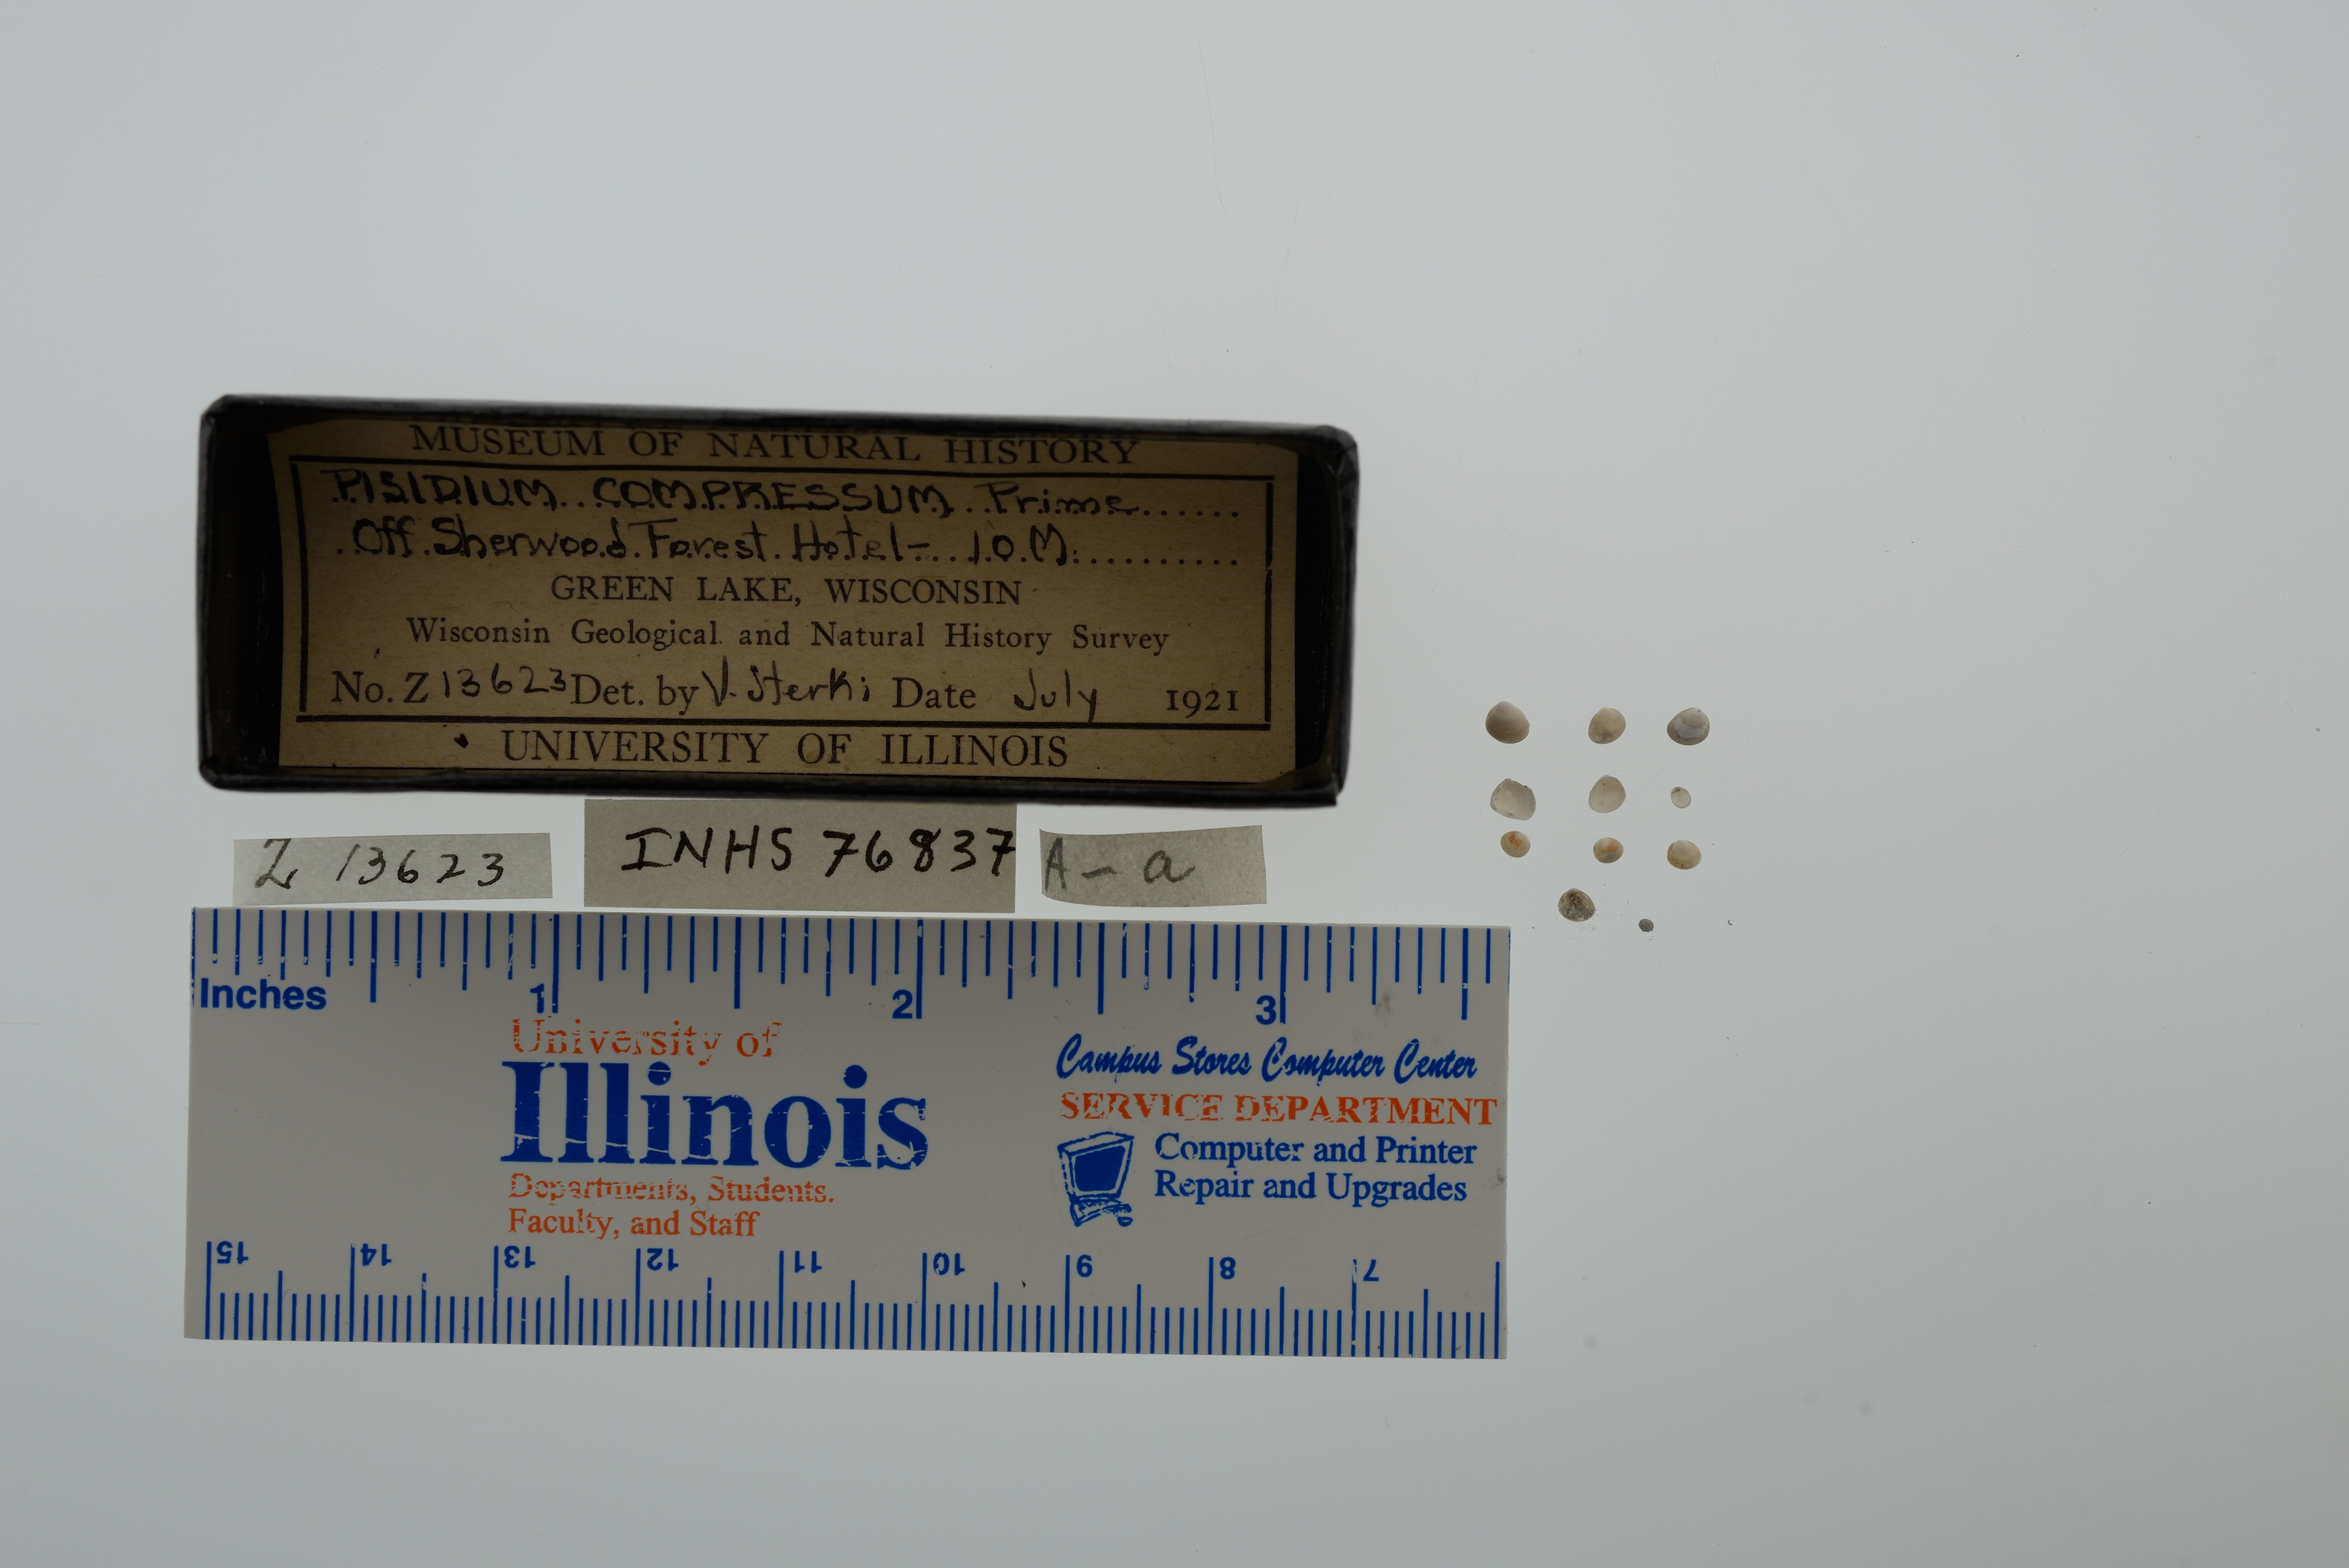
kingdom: Animalia
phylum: Mollusca
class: Bivalvia
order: Sphaeriida
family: Sphaeriidae
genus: Euglesa
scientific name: Euglesa compressa
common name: Ridgedbeak peaclam
